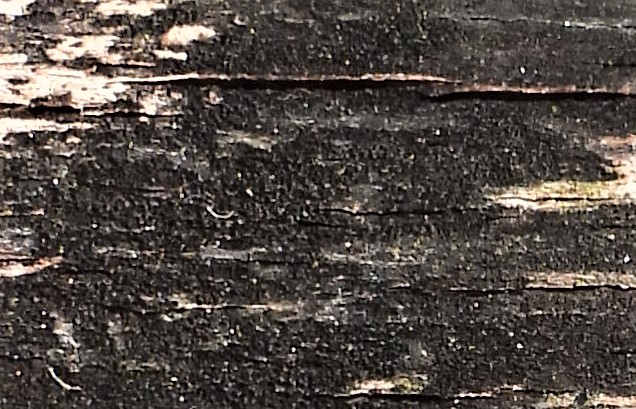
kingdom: Fungi
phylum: Ascomycota
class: Leotiomycetes
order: Helotiales
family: Helotiaceae
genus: Bispora
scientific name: Bispora pallescens
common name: måtte-snitskive
